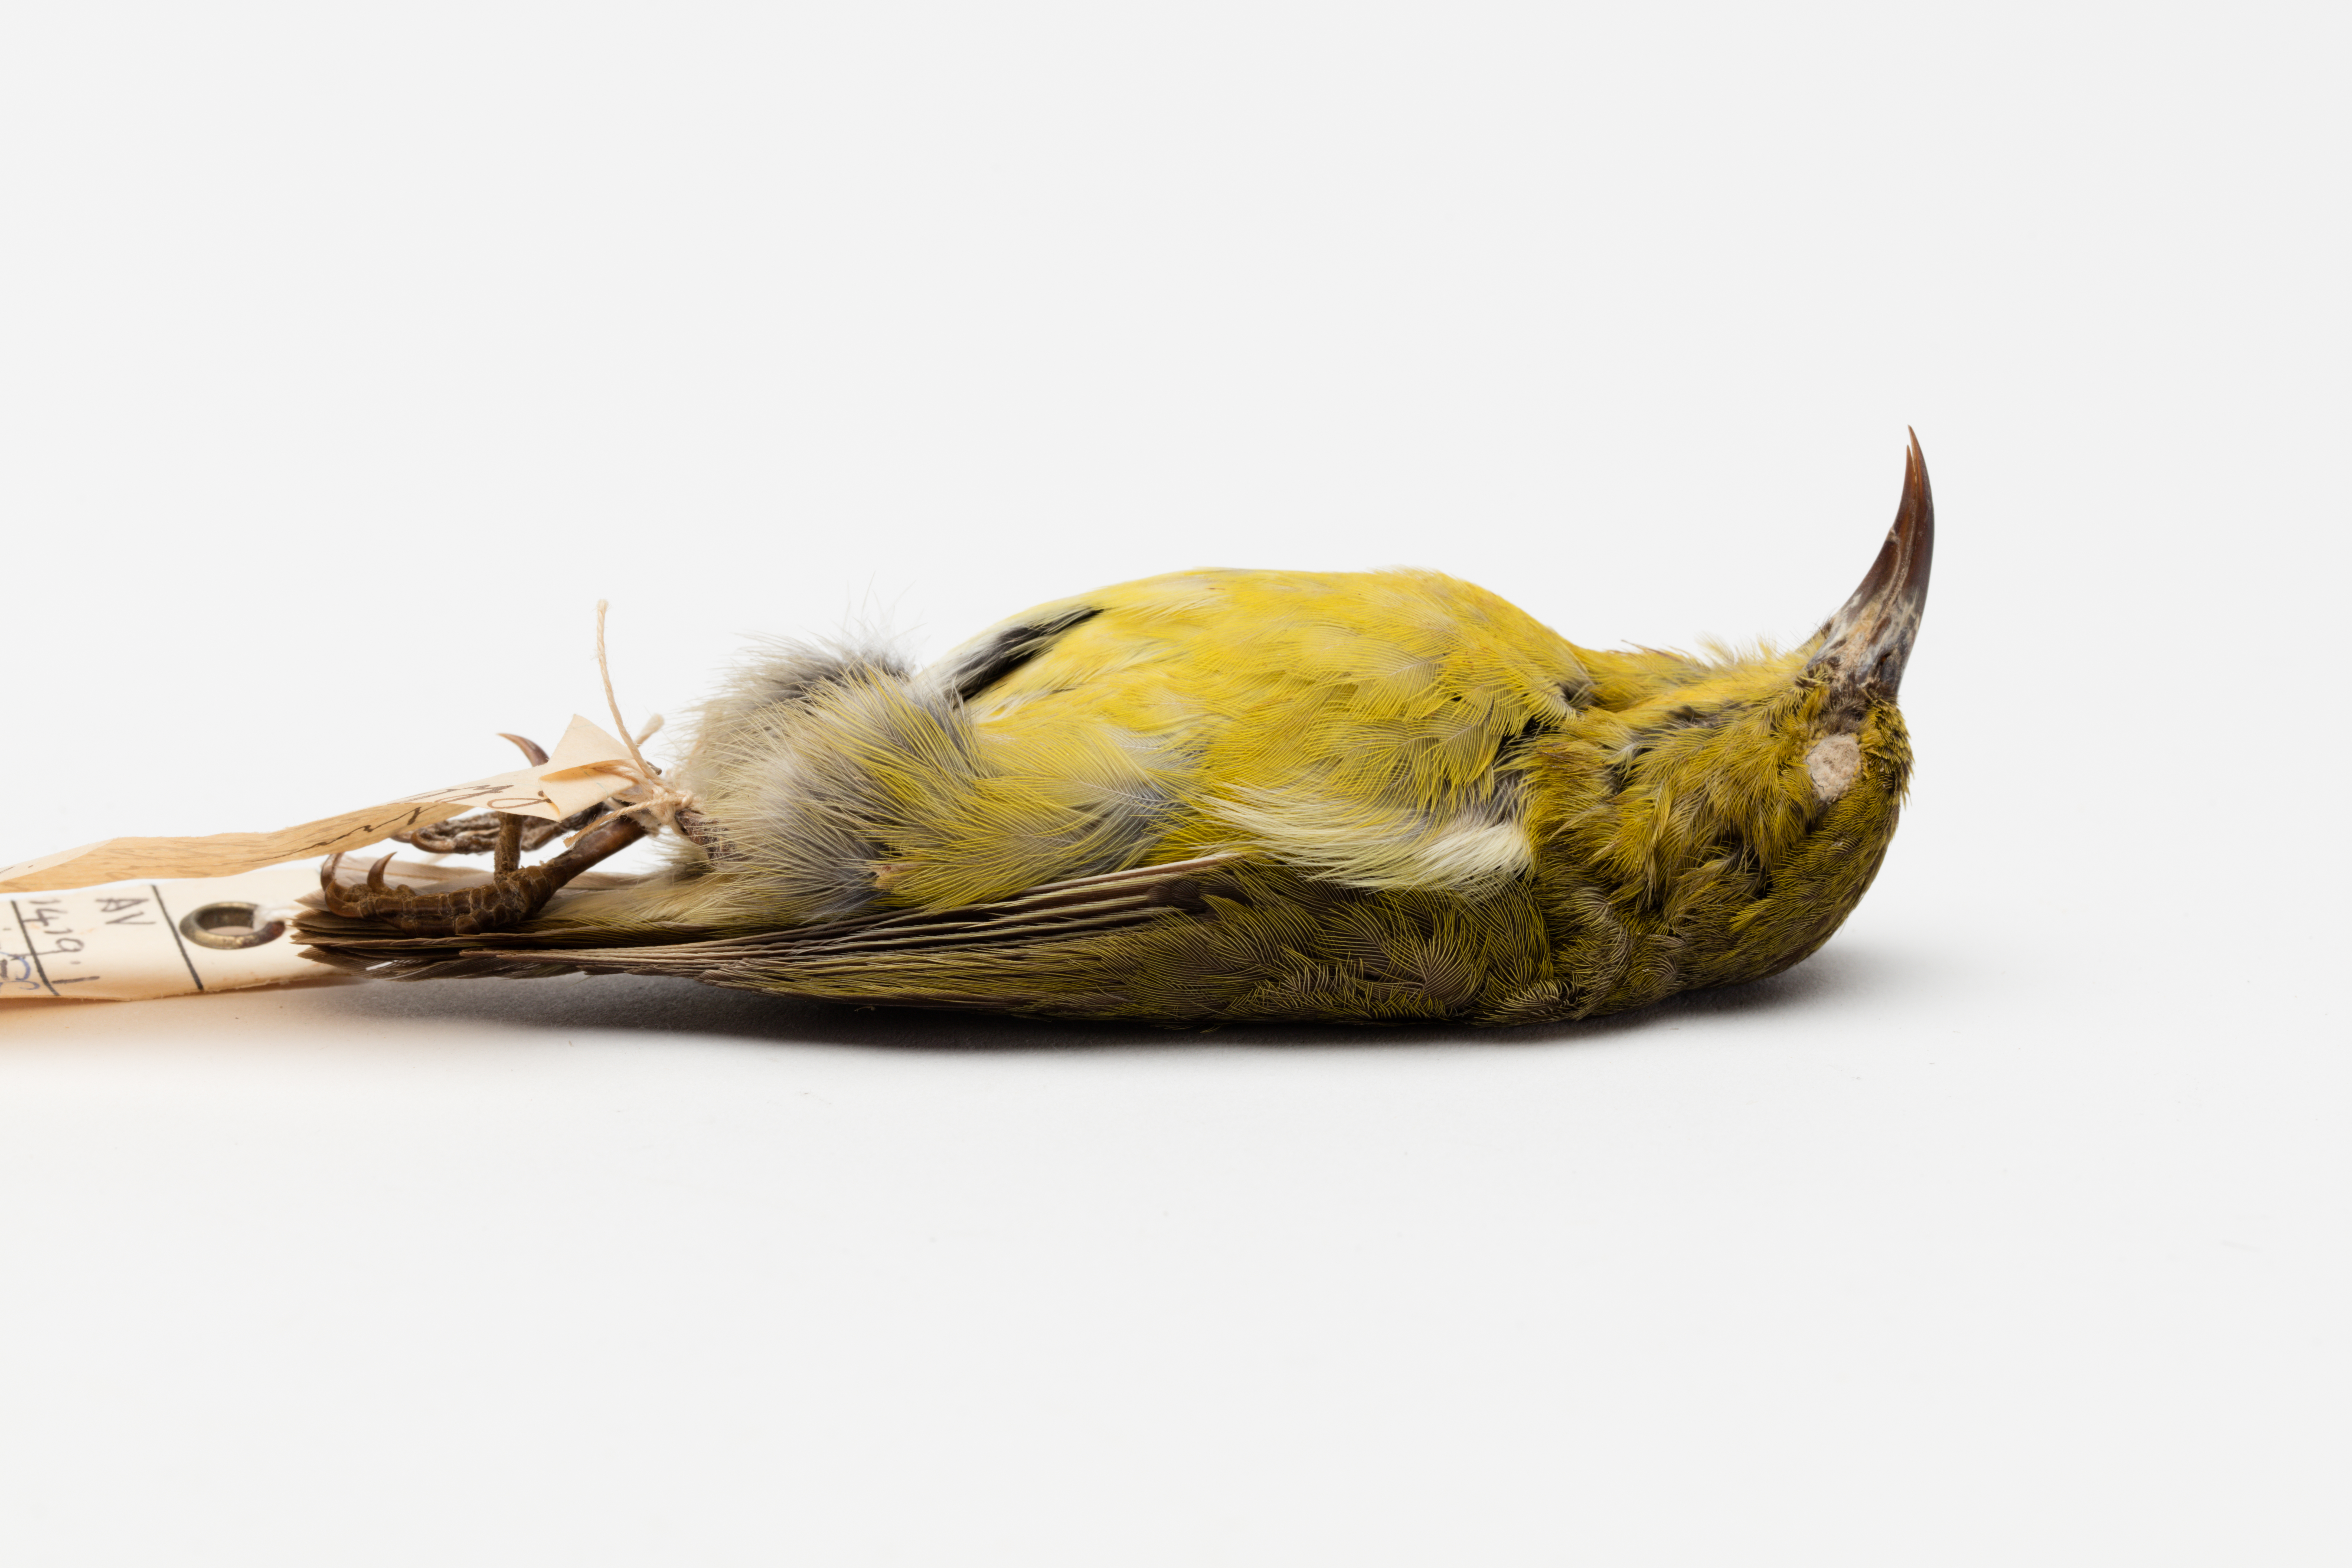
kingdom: Animalia
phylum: Chordata
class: Aves
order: Passeriformes
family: Fringillidae
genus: Chlorodrepanis
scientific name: Chlorodrepanis virens
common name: Hawaii amakihi
